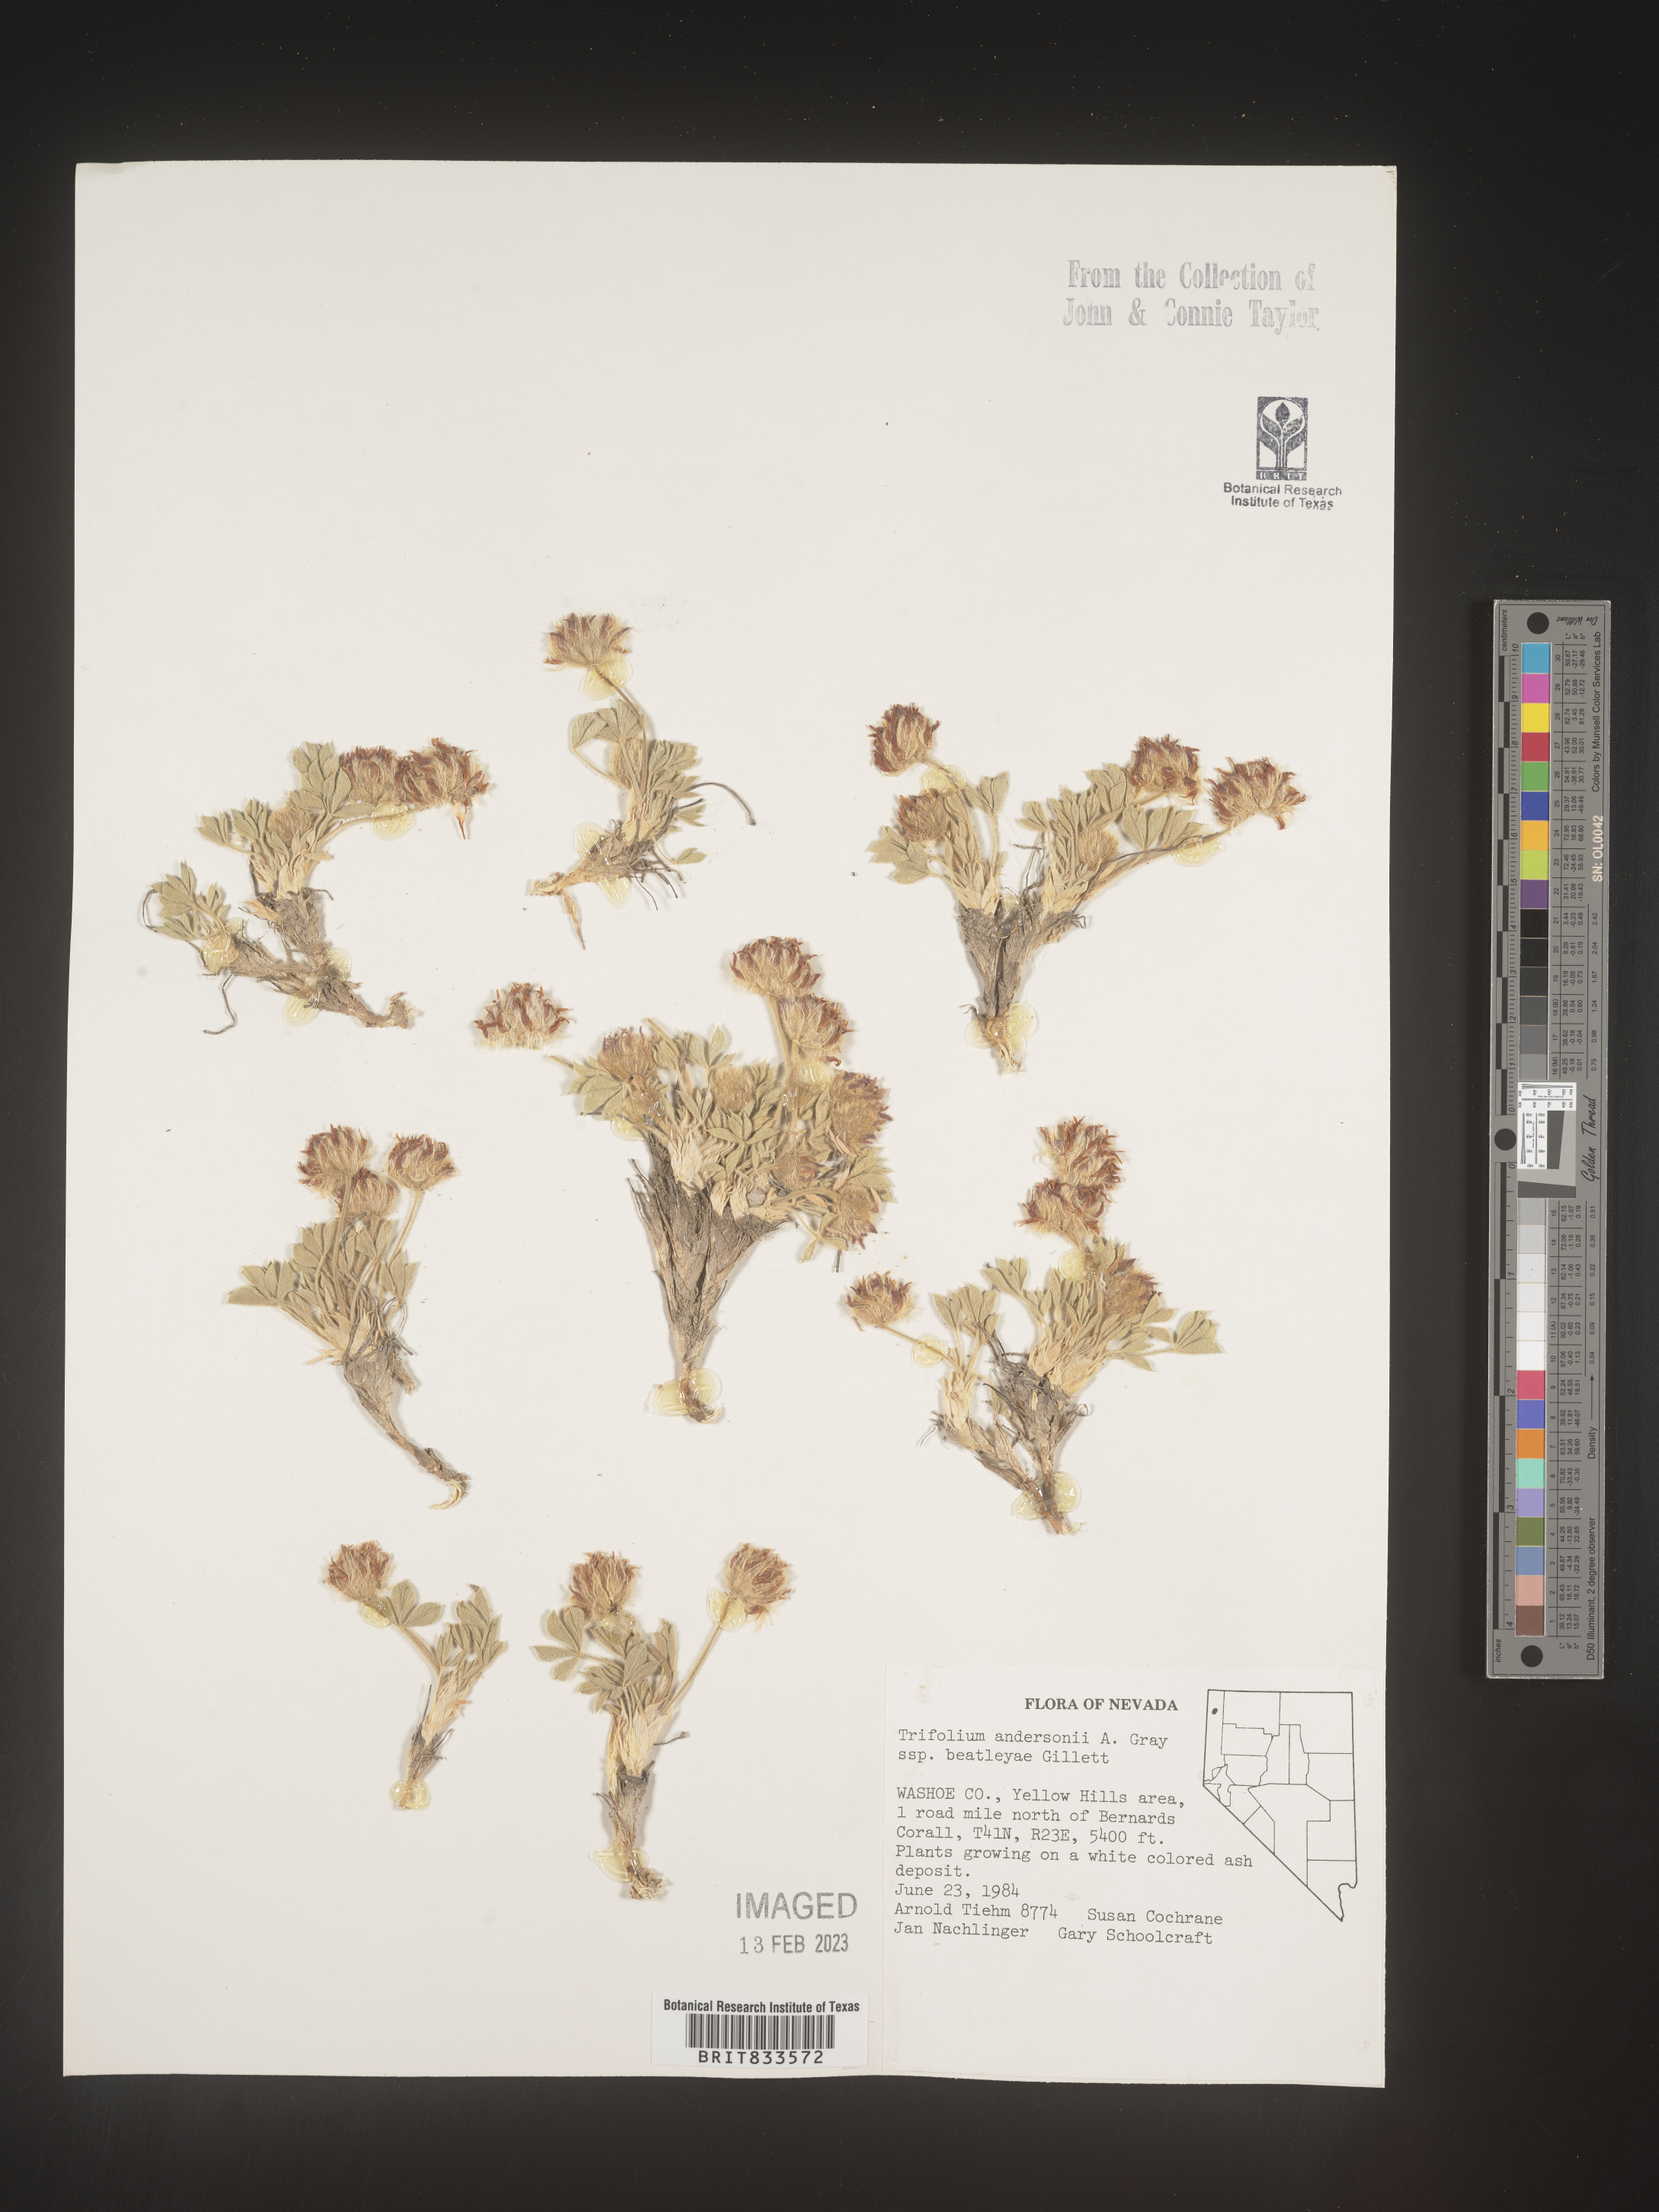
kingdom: Plantae
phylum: Tracheophyta
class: Magnoliopsida
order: Fabales
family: Fabaceae
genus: Trifolium
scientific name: Trifolium
